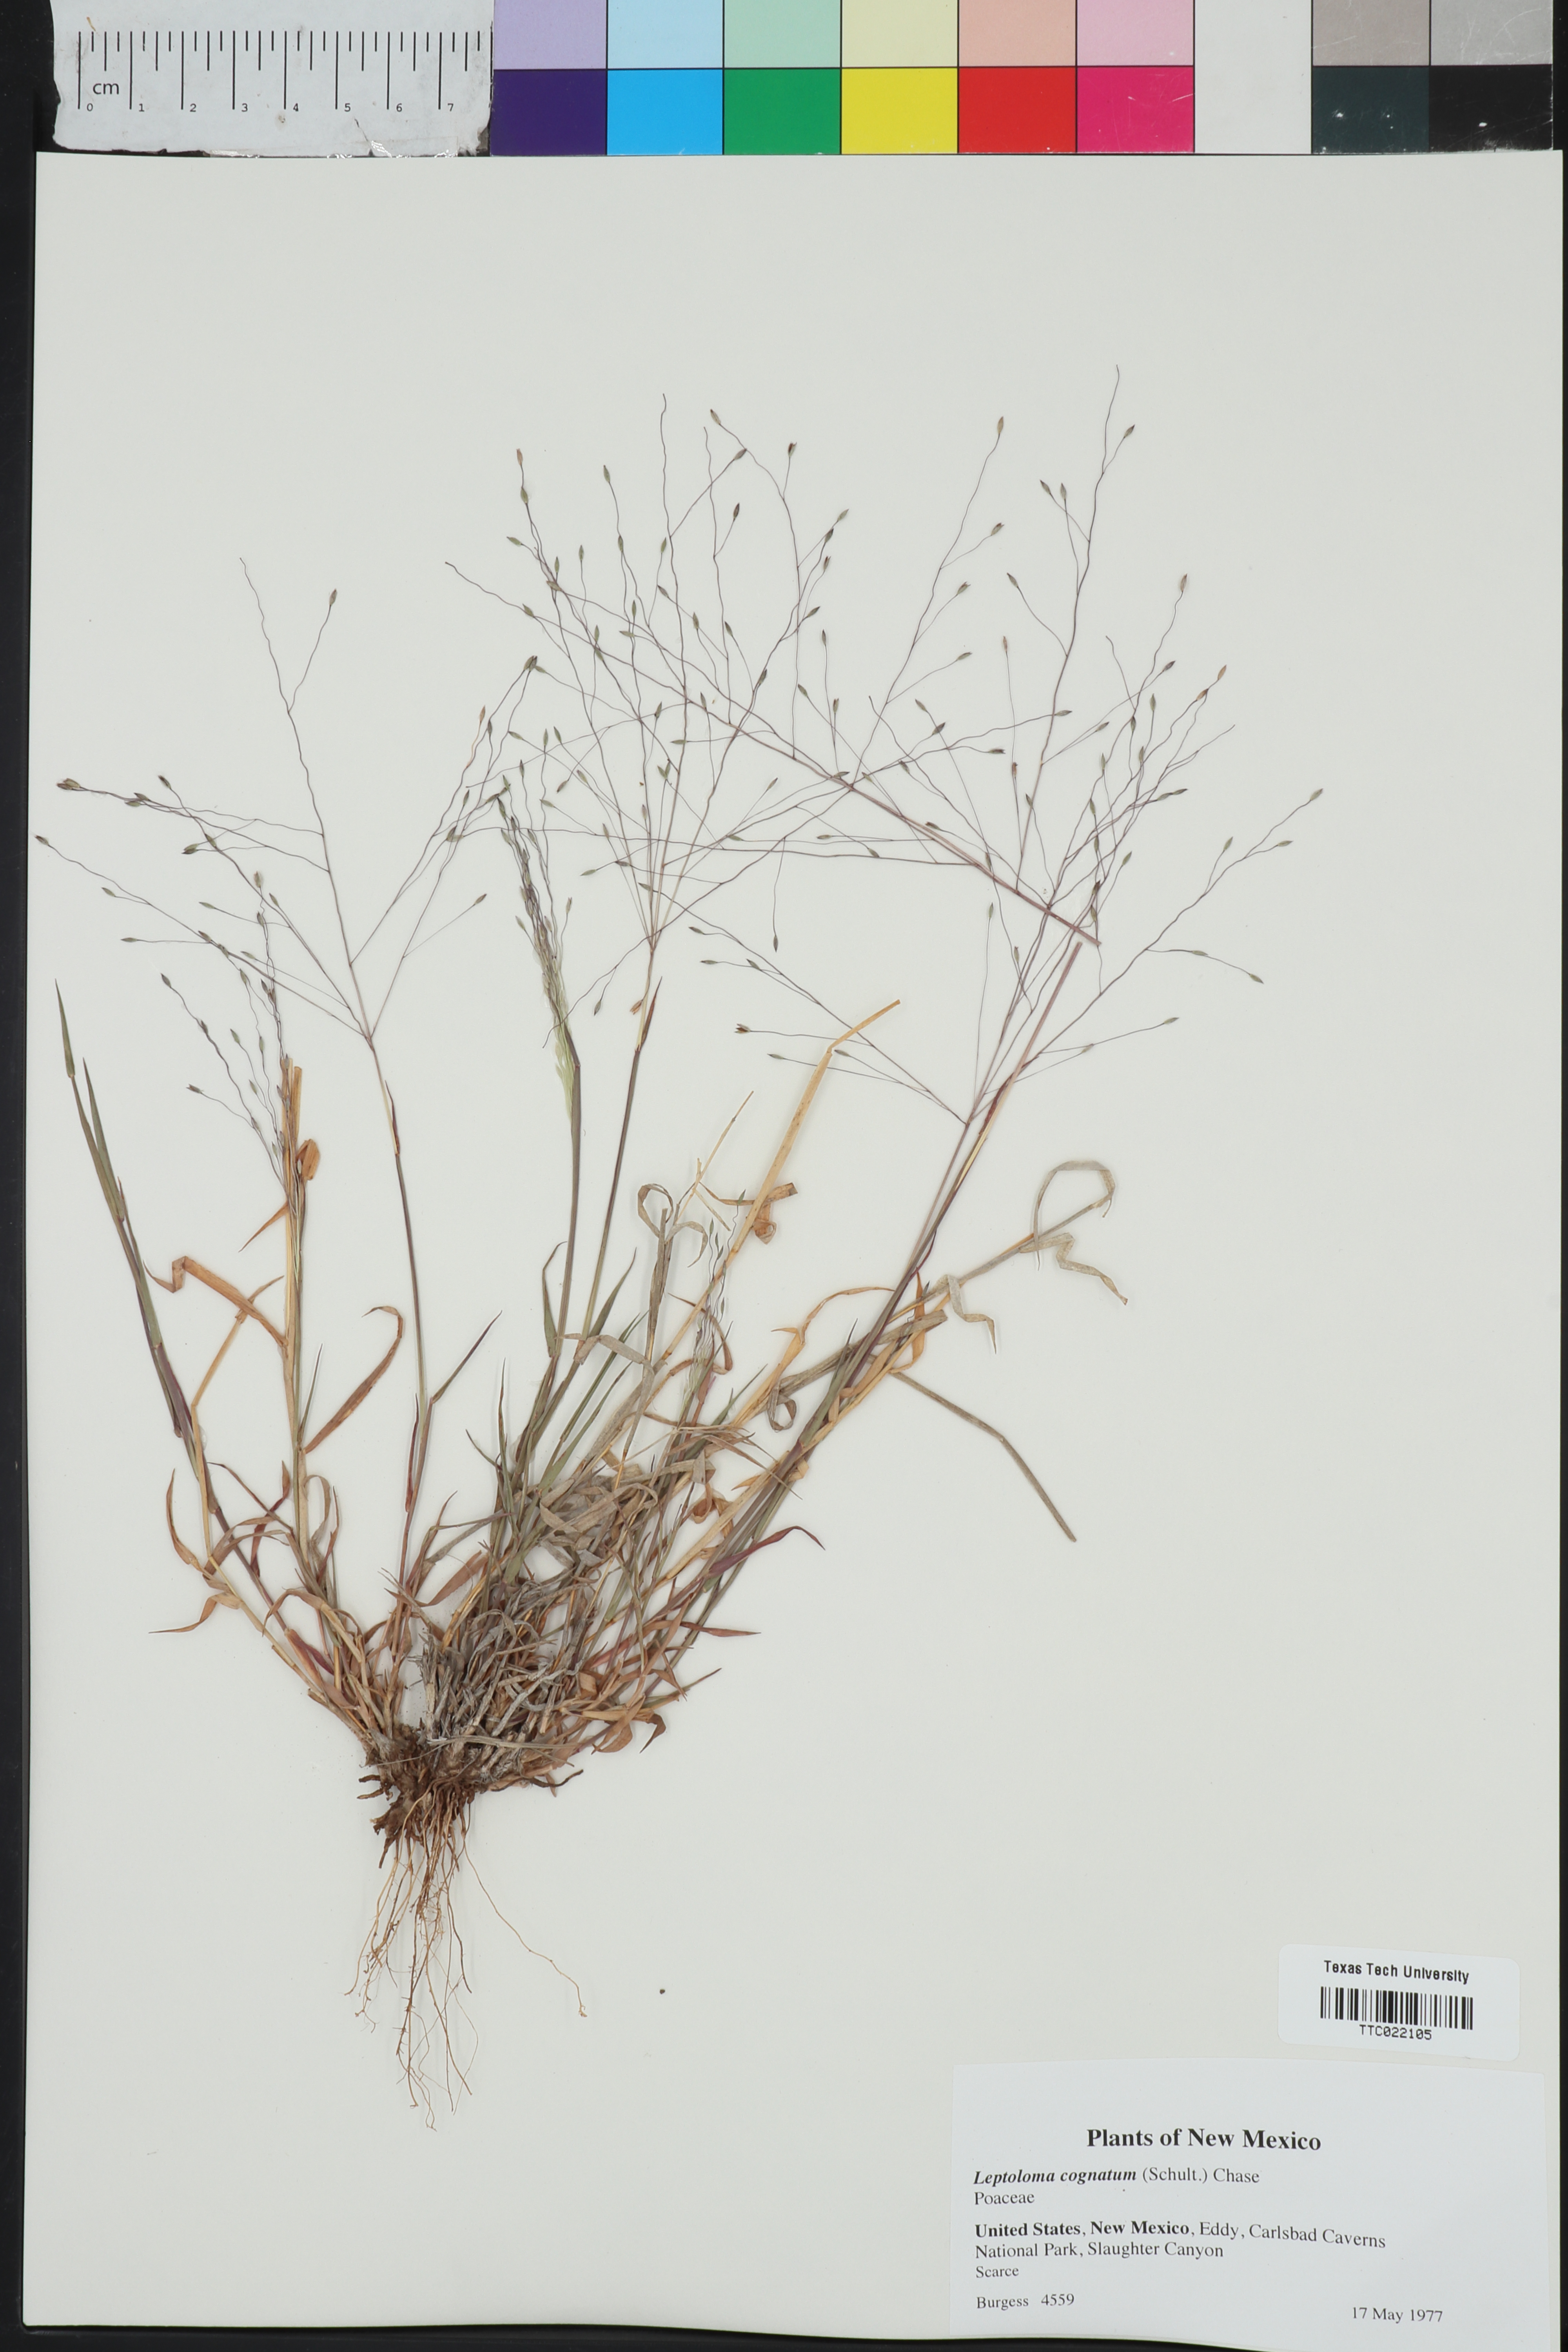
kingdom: Plantae
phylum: Tracheophyta
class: Liliopsida
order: Poales
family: Poaceae
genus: Digitaria
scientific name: Digitaria cognata
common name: Fall witchgrass
